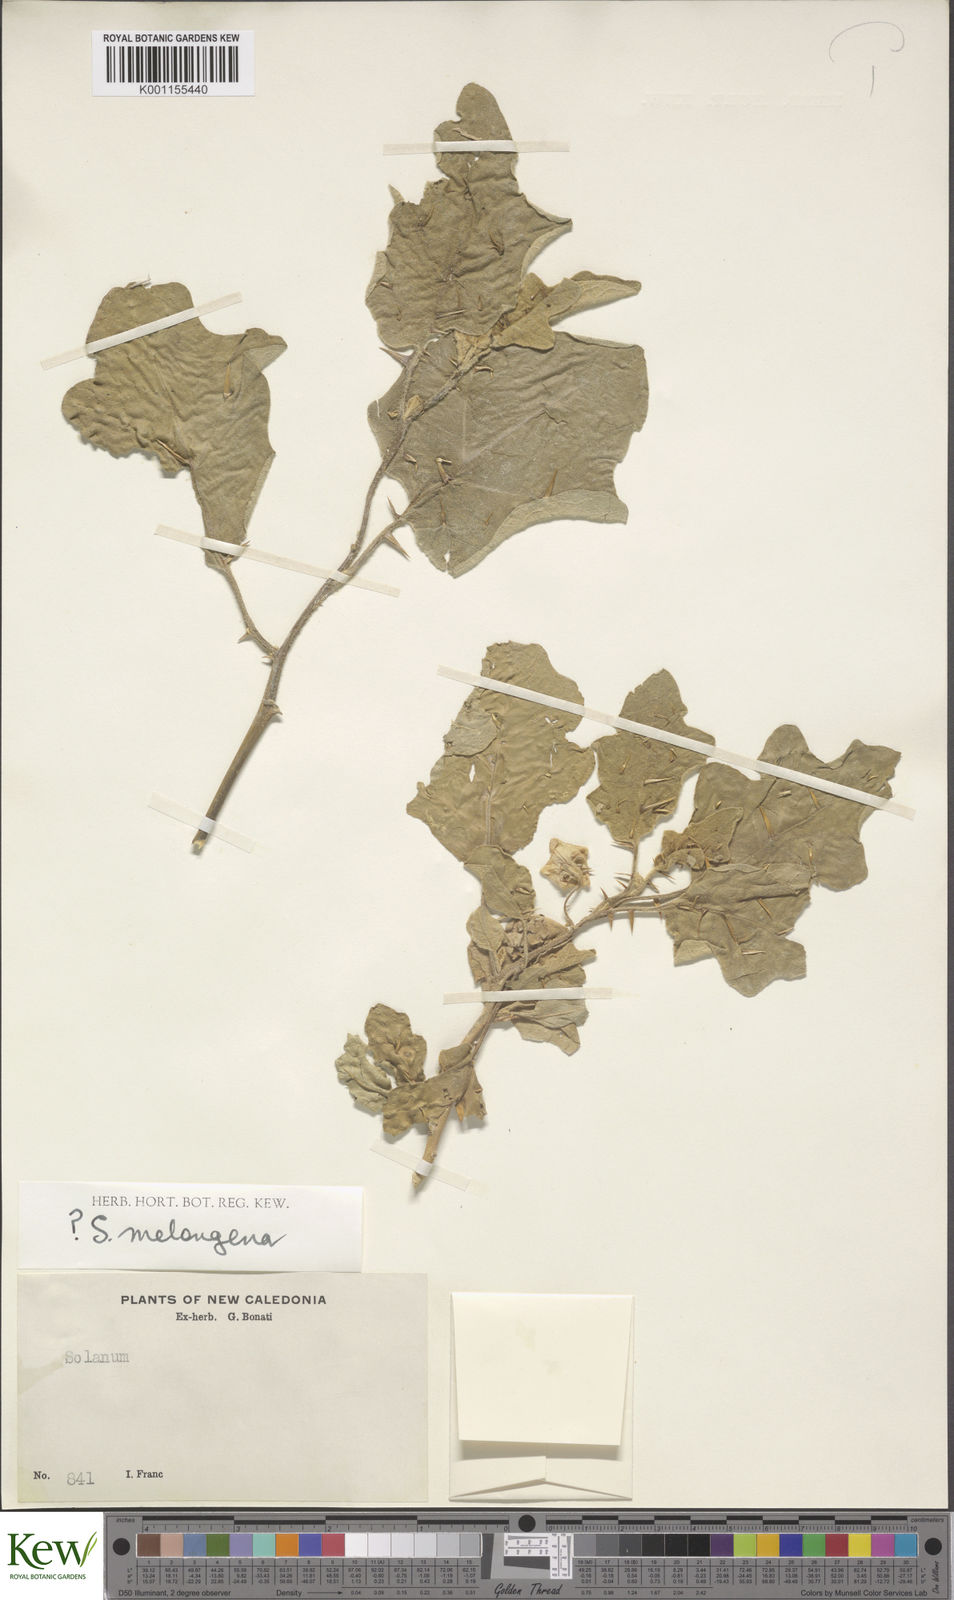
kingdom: Plantae
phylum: Tracheophyta
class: Magnoliopsida
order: Solanales
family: Solanaceae
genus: Solanum
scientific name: Solanum
